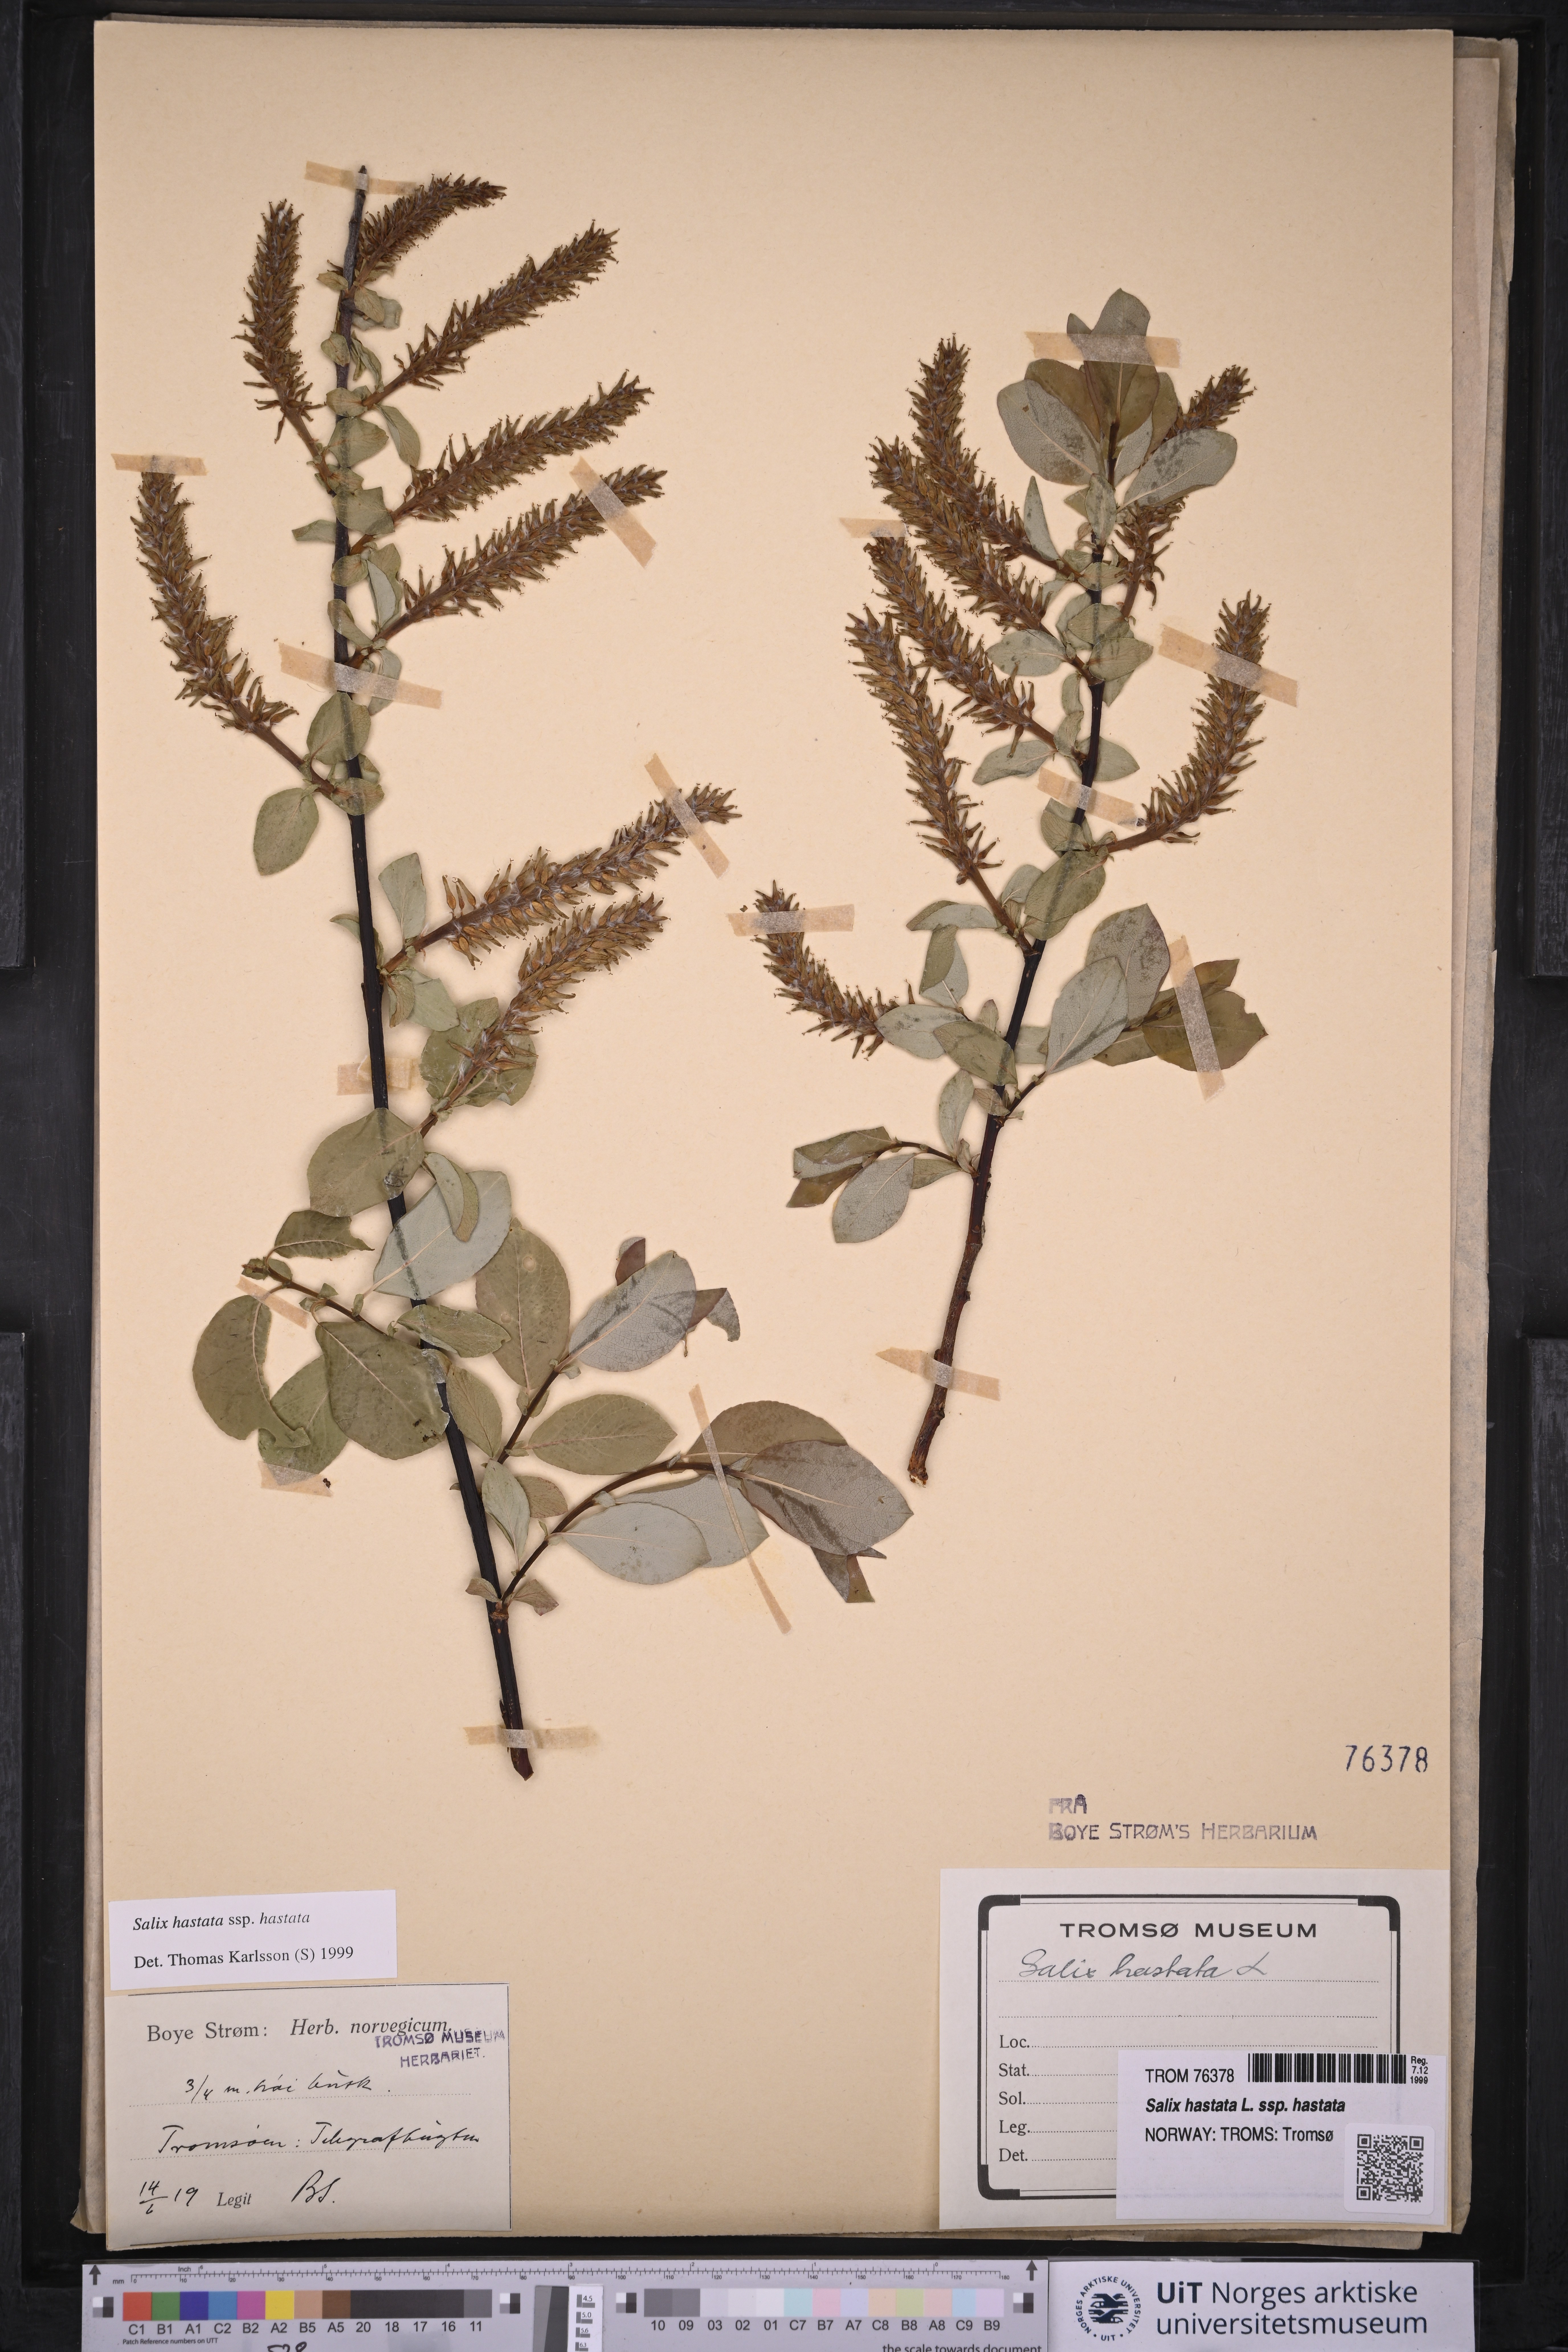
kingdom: Plantae
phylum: Tracheophyta
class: Magnoliopsida
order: Malpighiales
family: Salicaceae
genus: Salix
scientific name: Salix hastata
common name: Halberd willow
